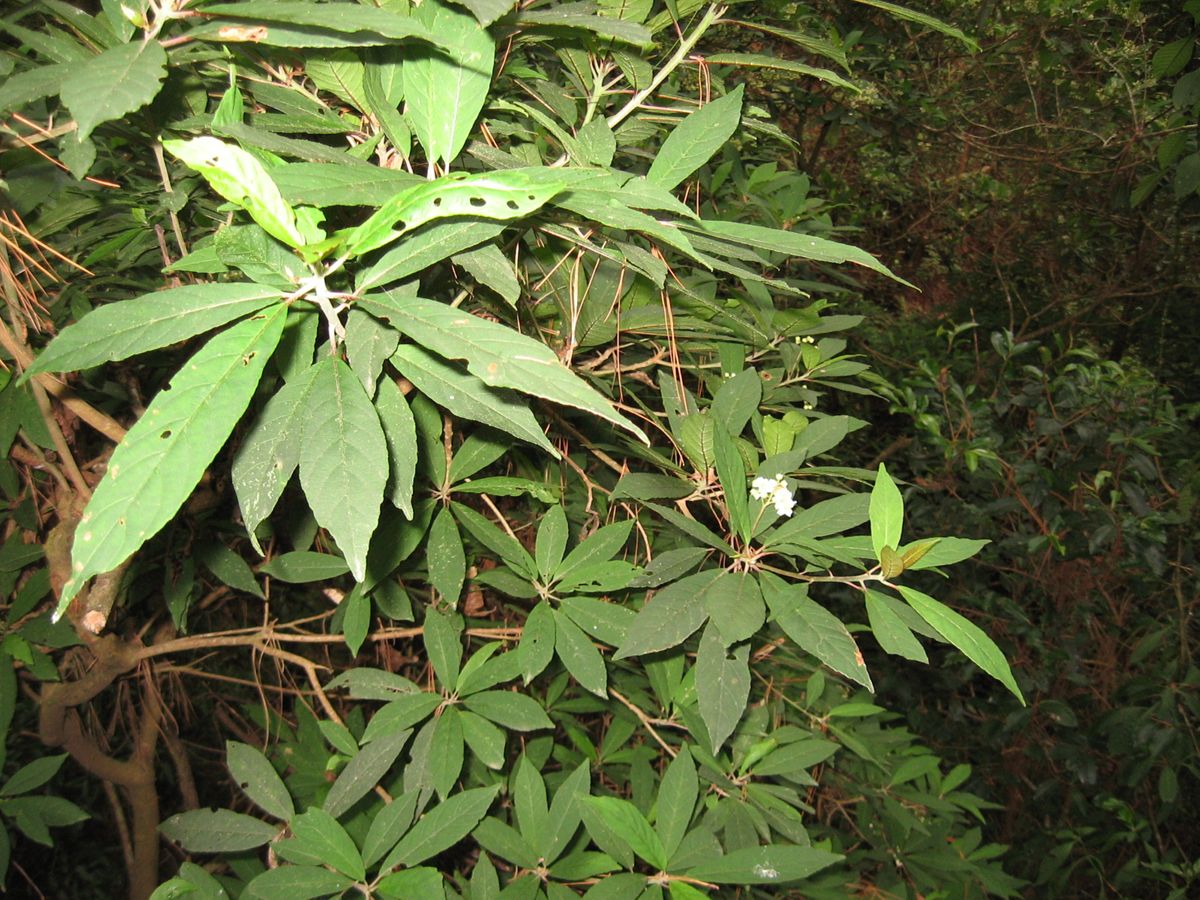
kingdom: Plantae
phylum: Tracheophyta
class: Magnoliopsida
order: Ericales
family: Actinidiaceae
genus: Saurauia
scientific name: Saurauia leucocarpa
